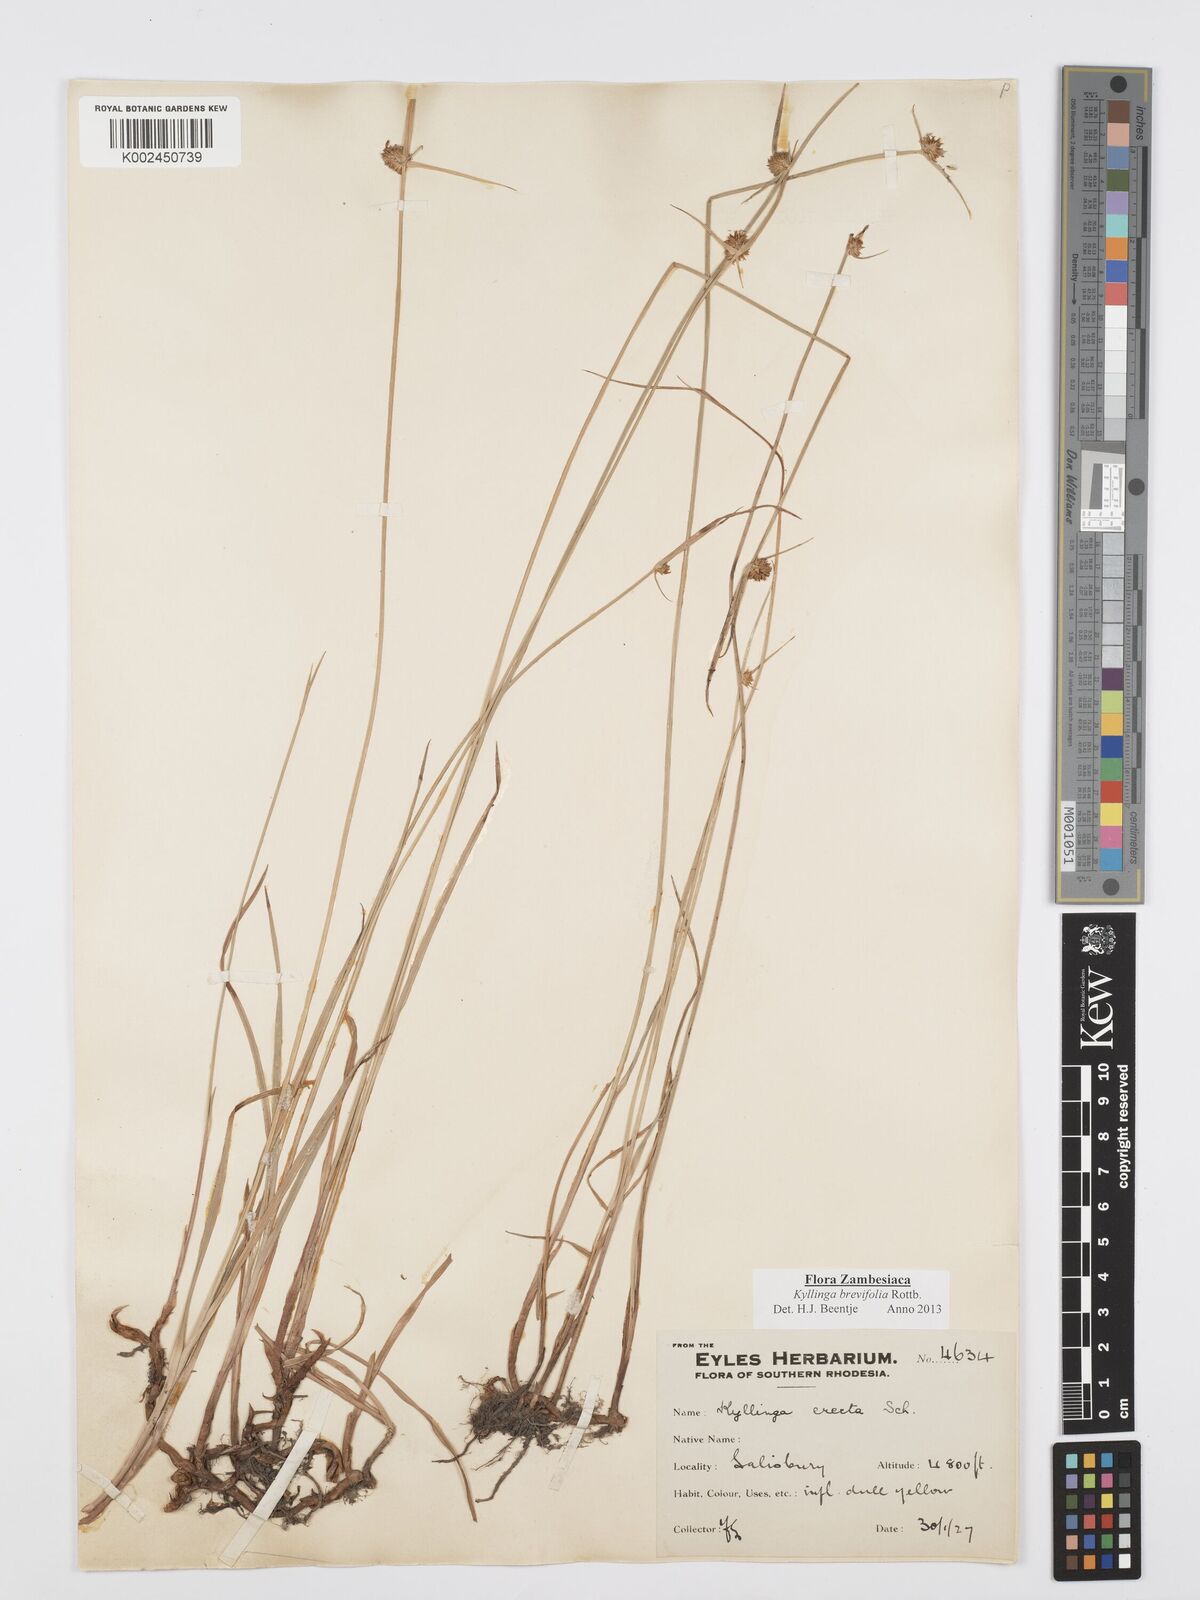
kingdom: Plantae
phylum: Tracheophyta
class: Liliopsida
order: Poales
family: Cyperaceae
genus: Cyperus
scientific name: Cyperus brevifolius
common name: Globe kyllinga
